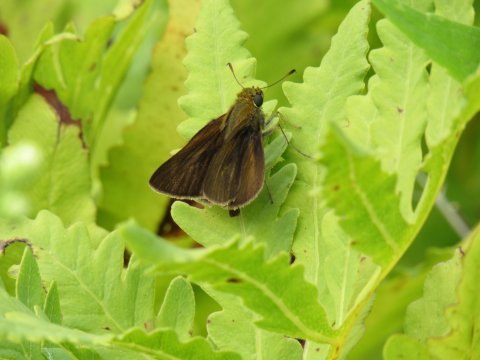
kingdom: Animalia
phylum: Arthropoda
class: Insecta
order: Lepidoptera
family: Hesperiidae
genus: Euphyes
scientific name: Euphyes vestris
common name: Dun Skipper
